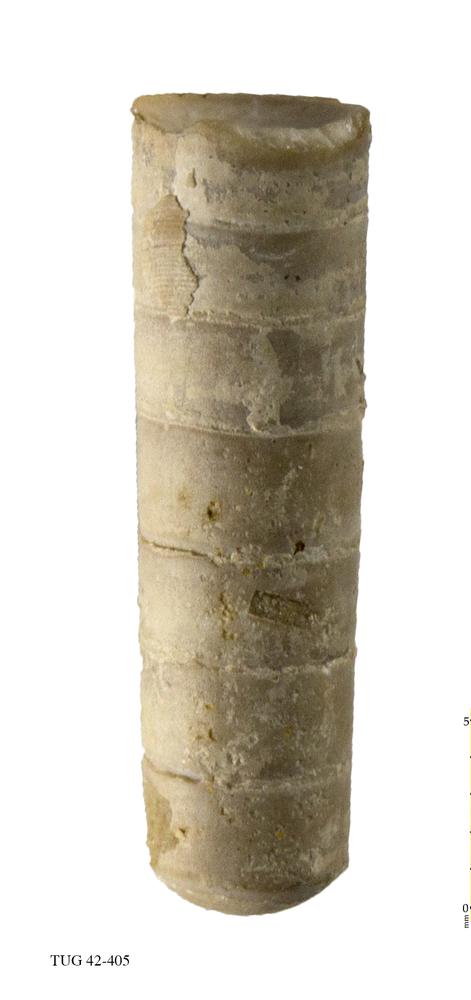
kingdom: Animalia
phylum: Mollusca
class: Cephalopoda
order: Orthocerida
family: Orthoceratidae
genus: Orthoceras
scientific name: Orthoceras regulare
